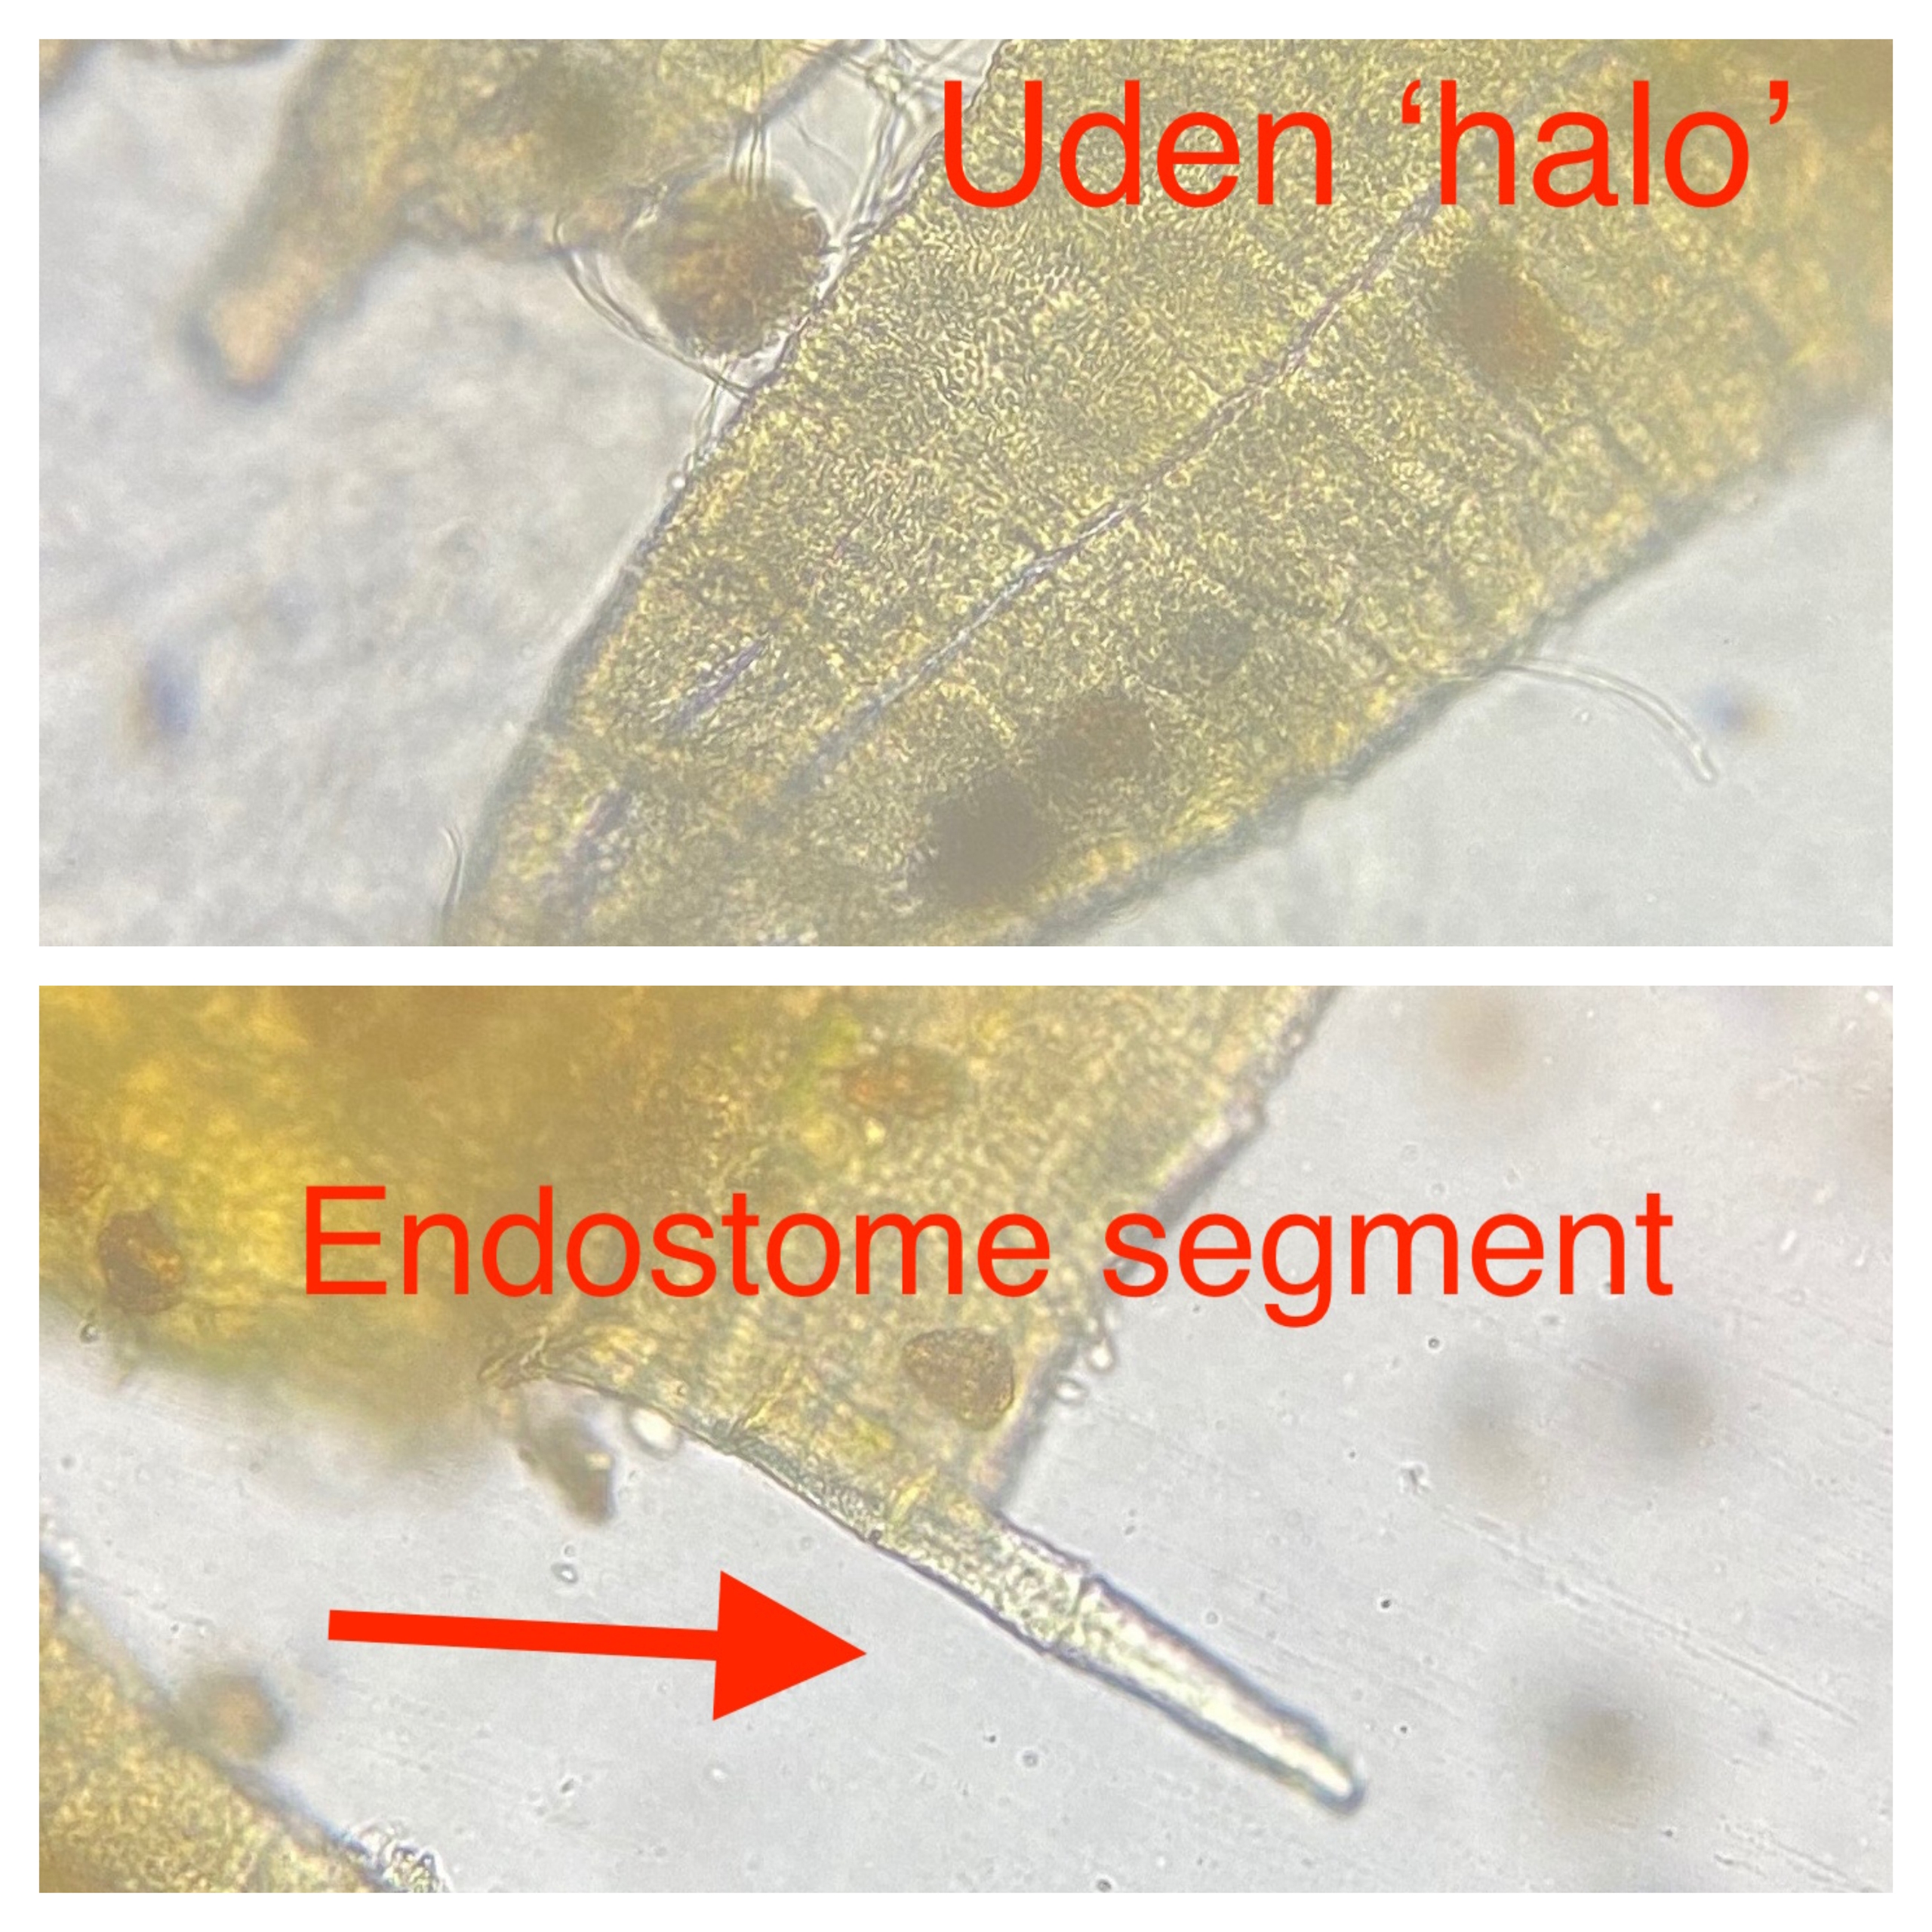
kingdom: Plantae
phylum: Bryophyta
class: Bryopsida
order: Orthotrichales
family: Orthotrichaceae
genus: Ulota
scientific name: Ulota
